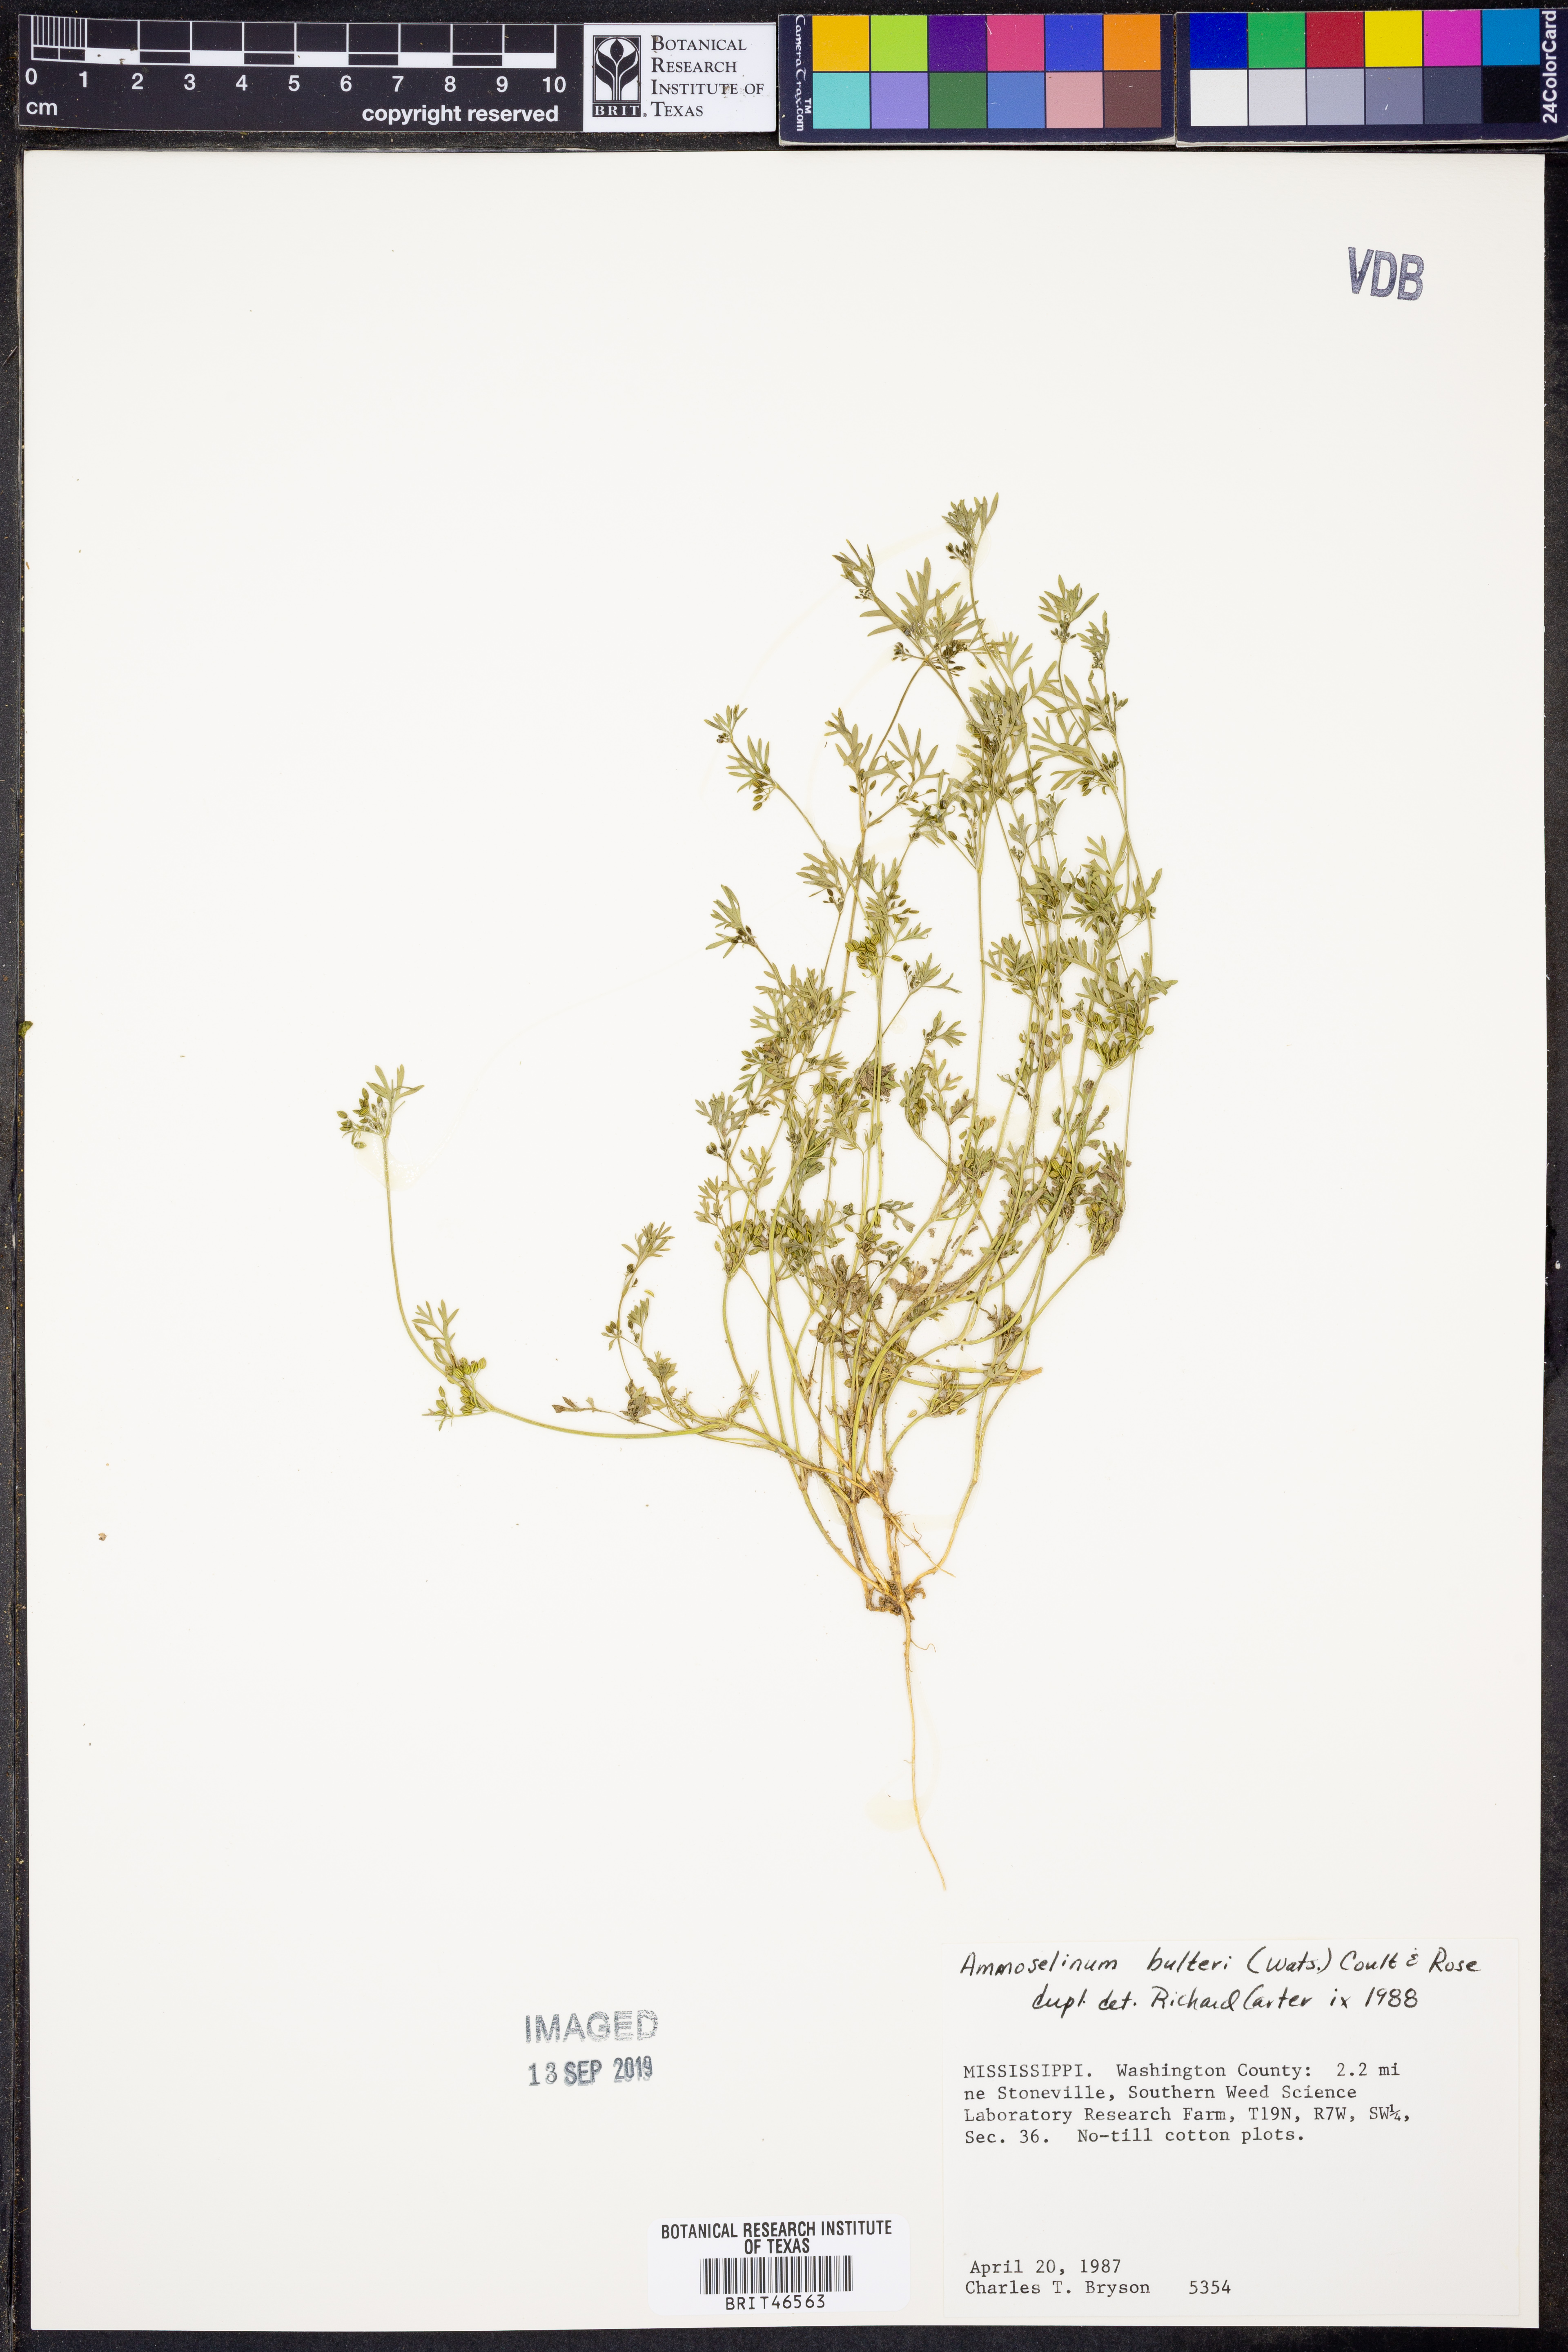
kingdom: Plantae
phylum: Tracheophyta
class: Magnoliopsida
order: Apiales
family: Apiaceae
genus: Ammoselinum
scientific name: Ammoselinum butleri
